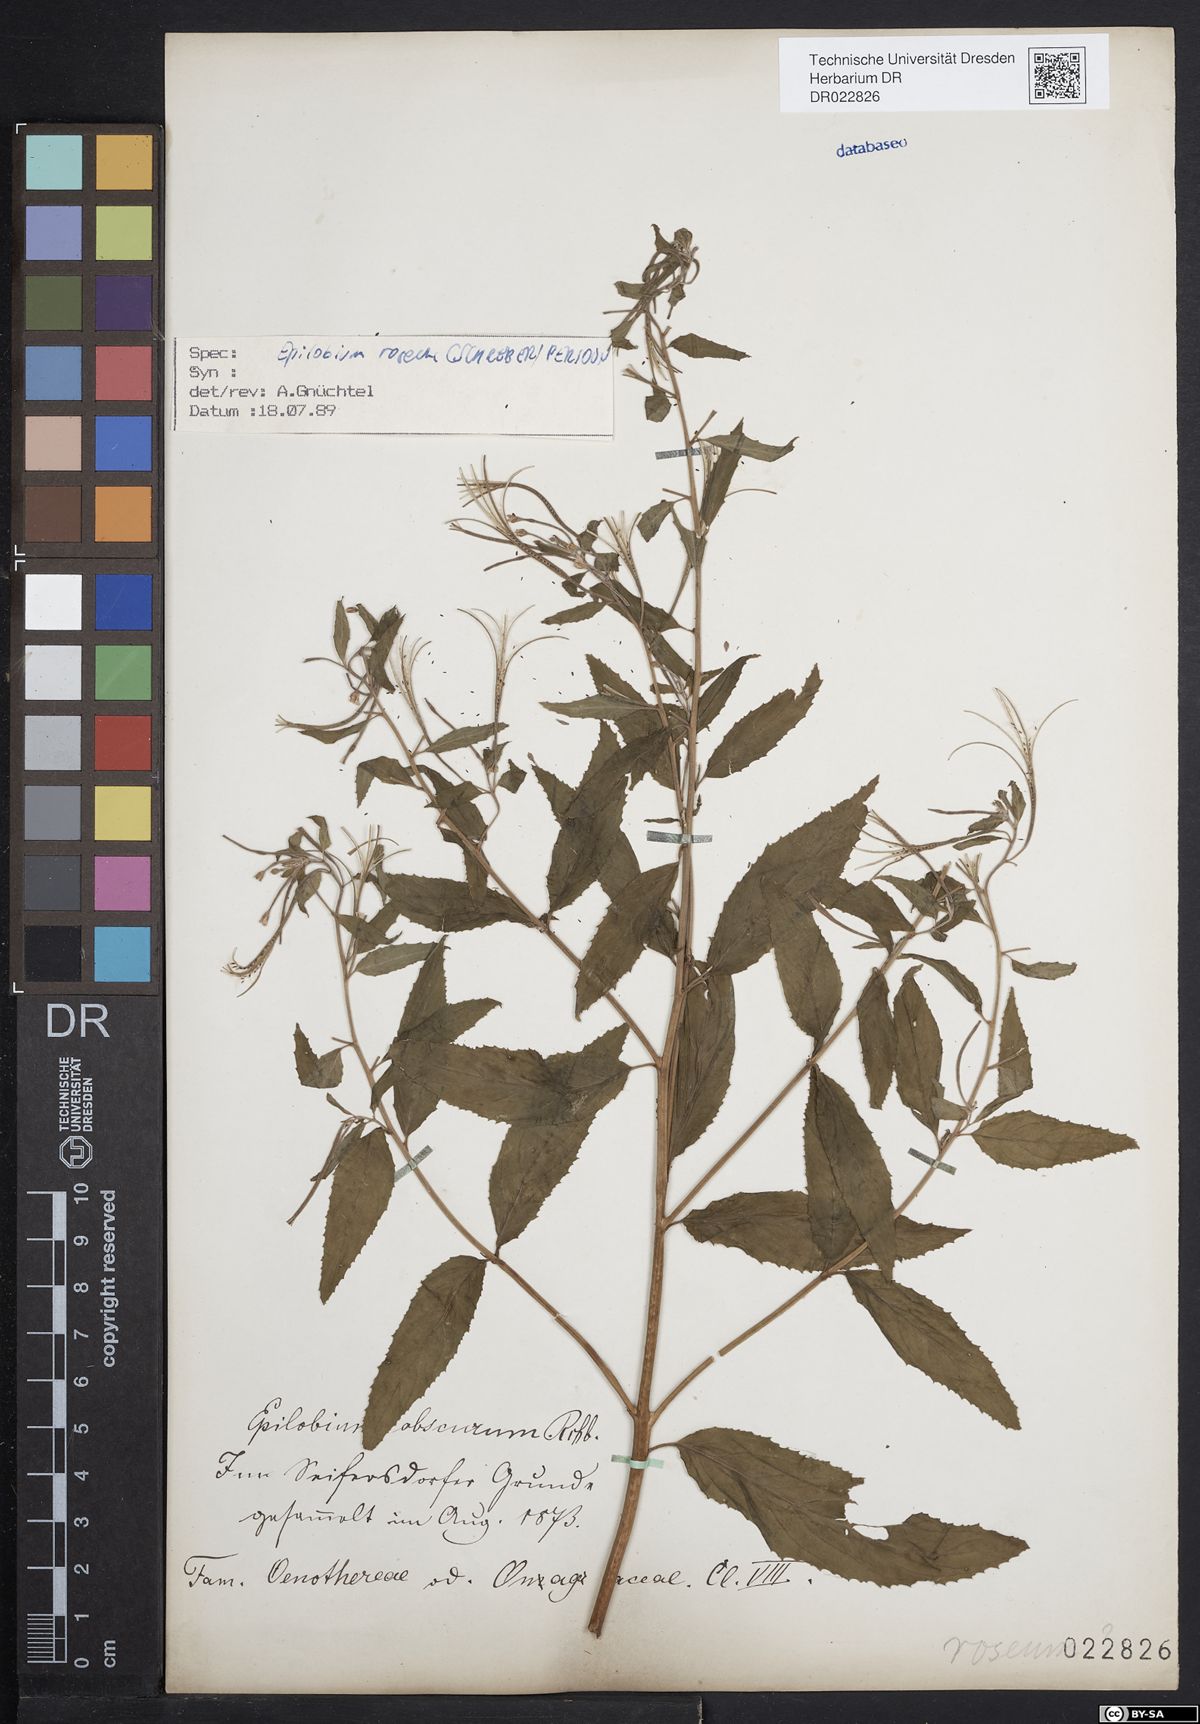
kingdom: Plantae
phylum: Tracheophyta
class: Magnoliopsida
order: Myrtales
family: Onagraceae
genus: Epilobium
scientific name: Epilobium roseum
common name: Pale willowherb
